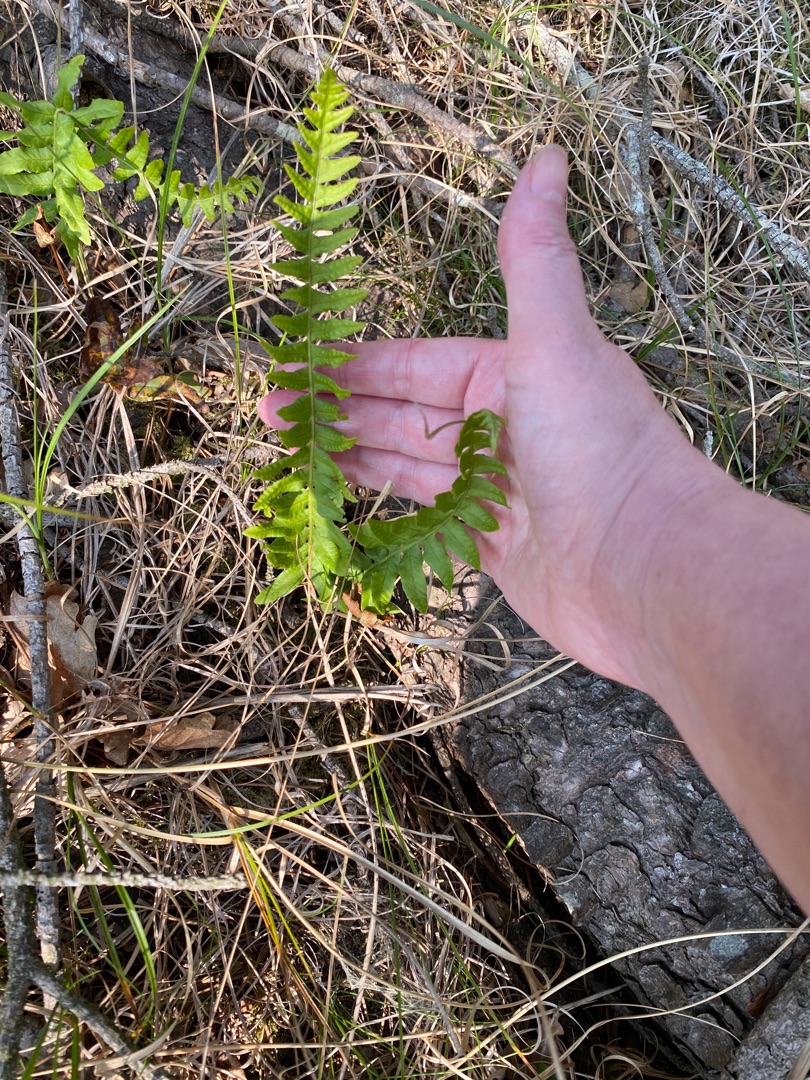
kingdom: Plantae
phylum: Tracheophyta
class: Polypodiopsida
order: Polypodiales
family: Polypodiaceae
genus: Polypodium
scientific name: Polypodium vulgare
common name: Almindelig engelsød
